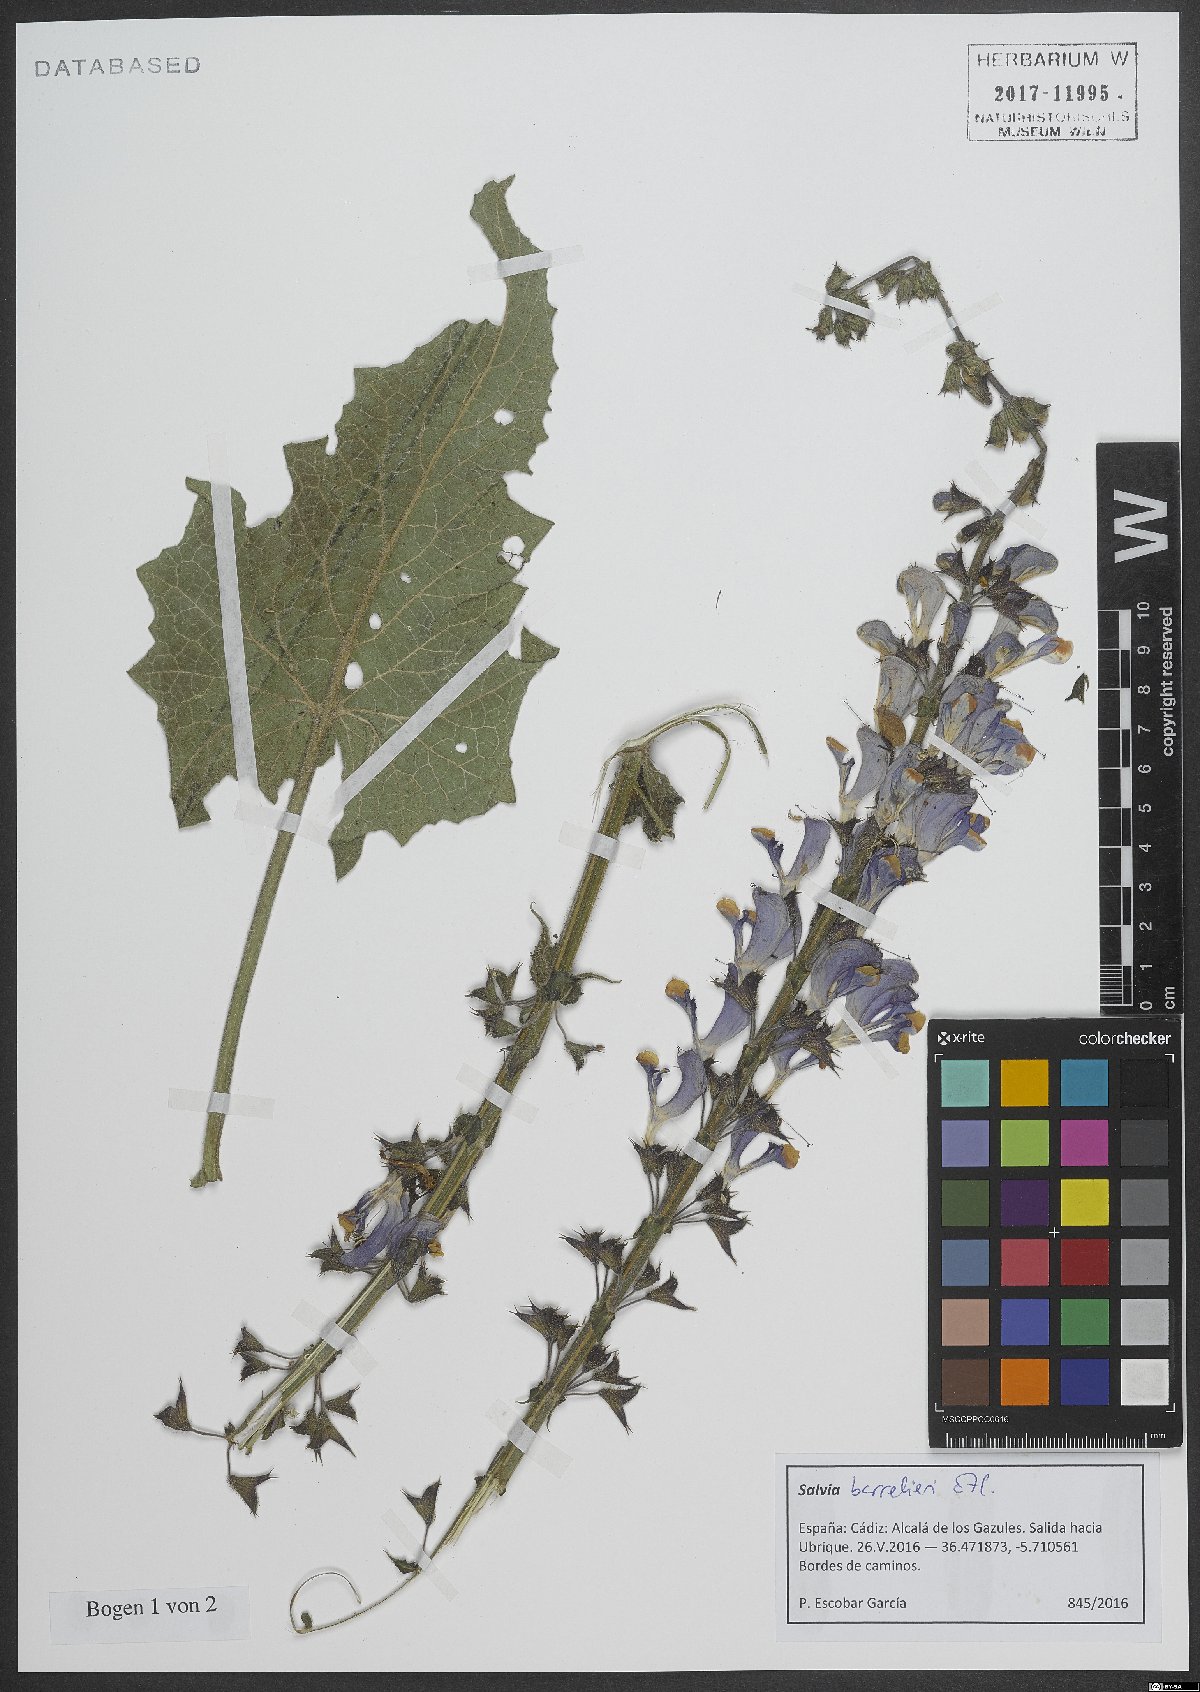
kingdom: Plantae
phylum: Tracheophyta
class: Magnoliopsida
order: Lamiales
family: Lamiaceae
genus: Salvia
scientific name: Salvia barrelieri
